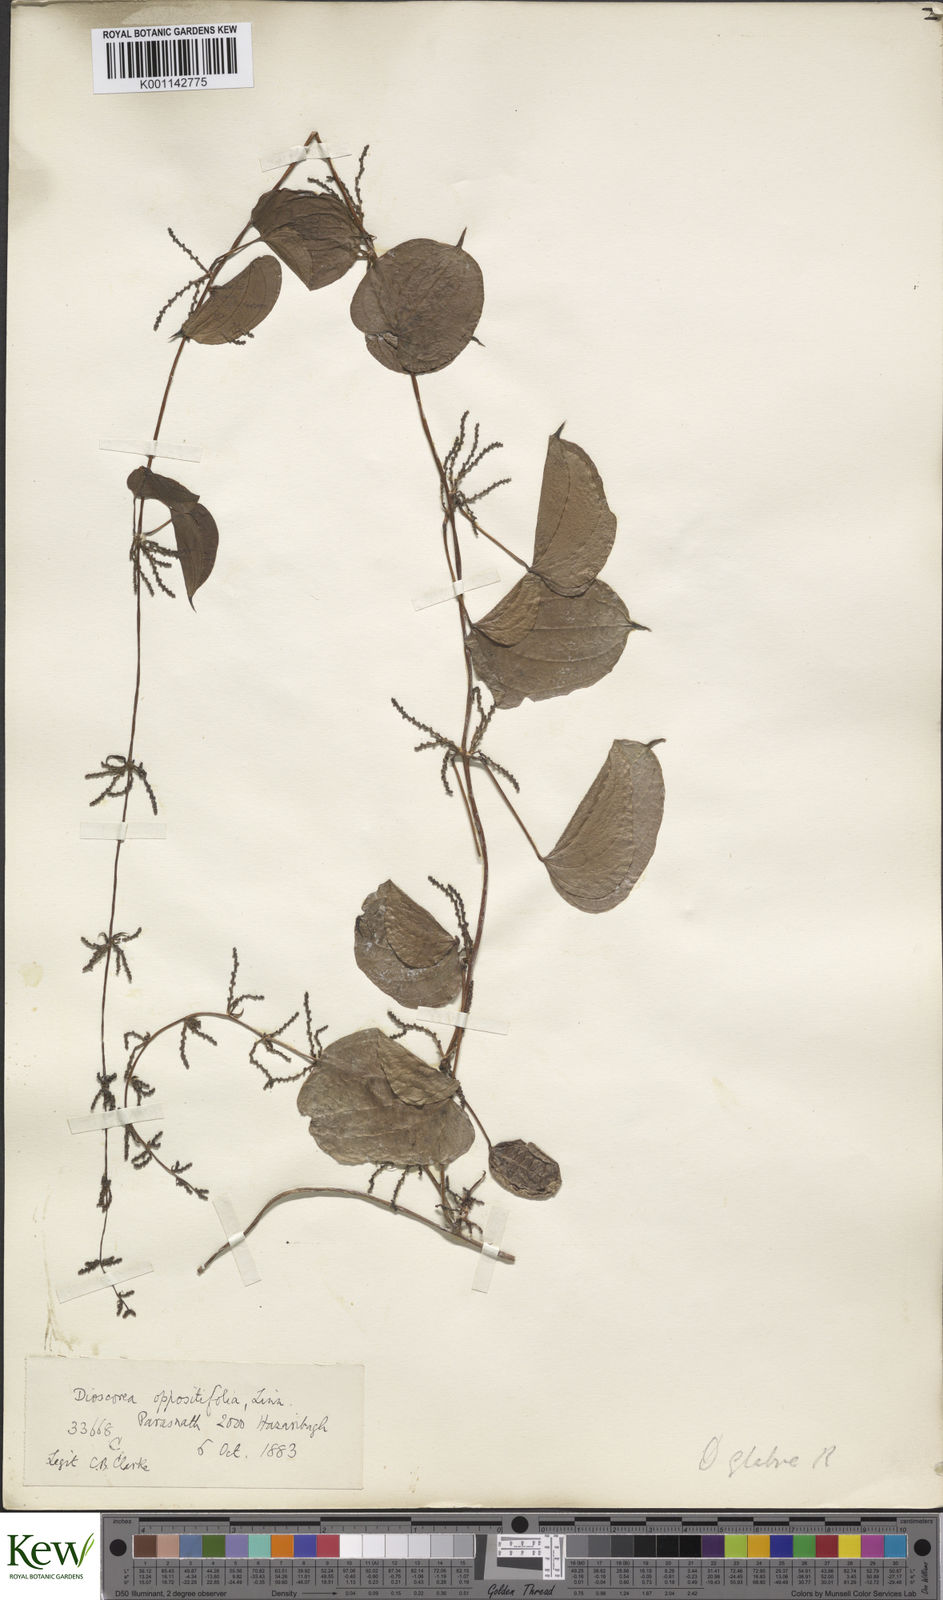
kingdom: Plantae
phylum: Tracheophyta
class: Liliopsida
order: Dioscoreales
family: Dioscoreaceae
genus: Dioscorea
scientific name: Dioscorea belophylla
